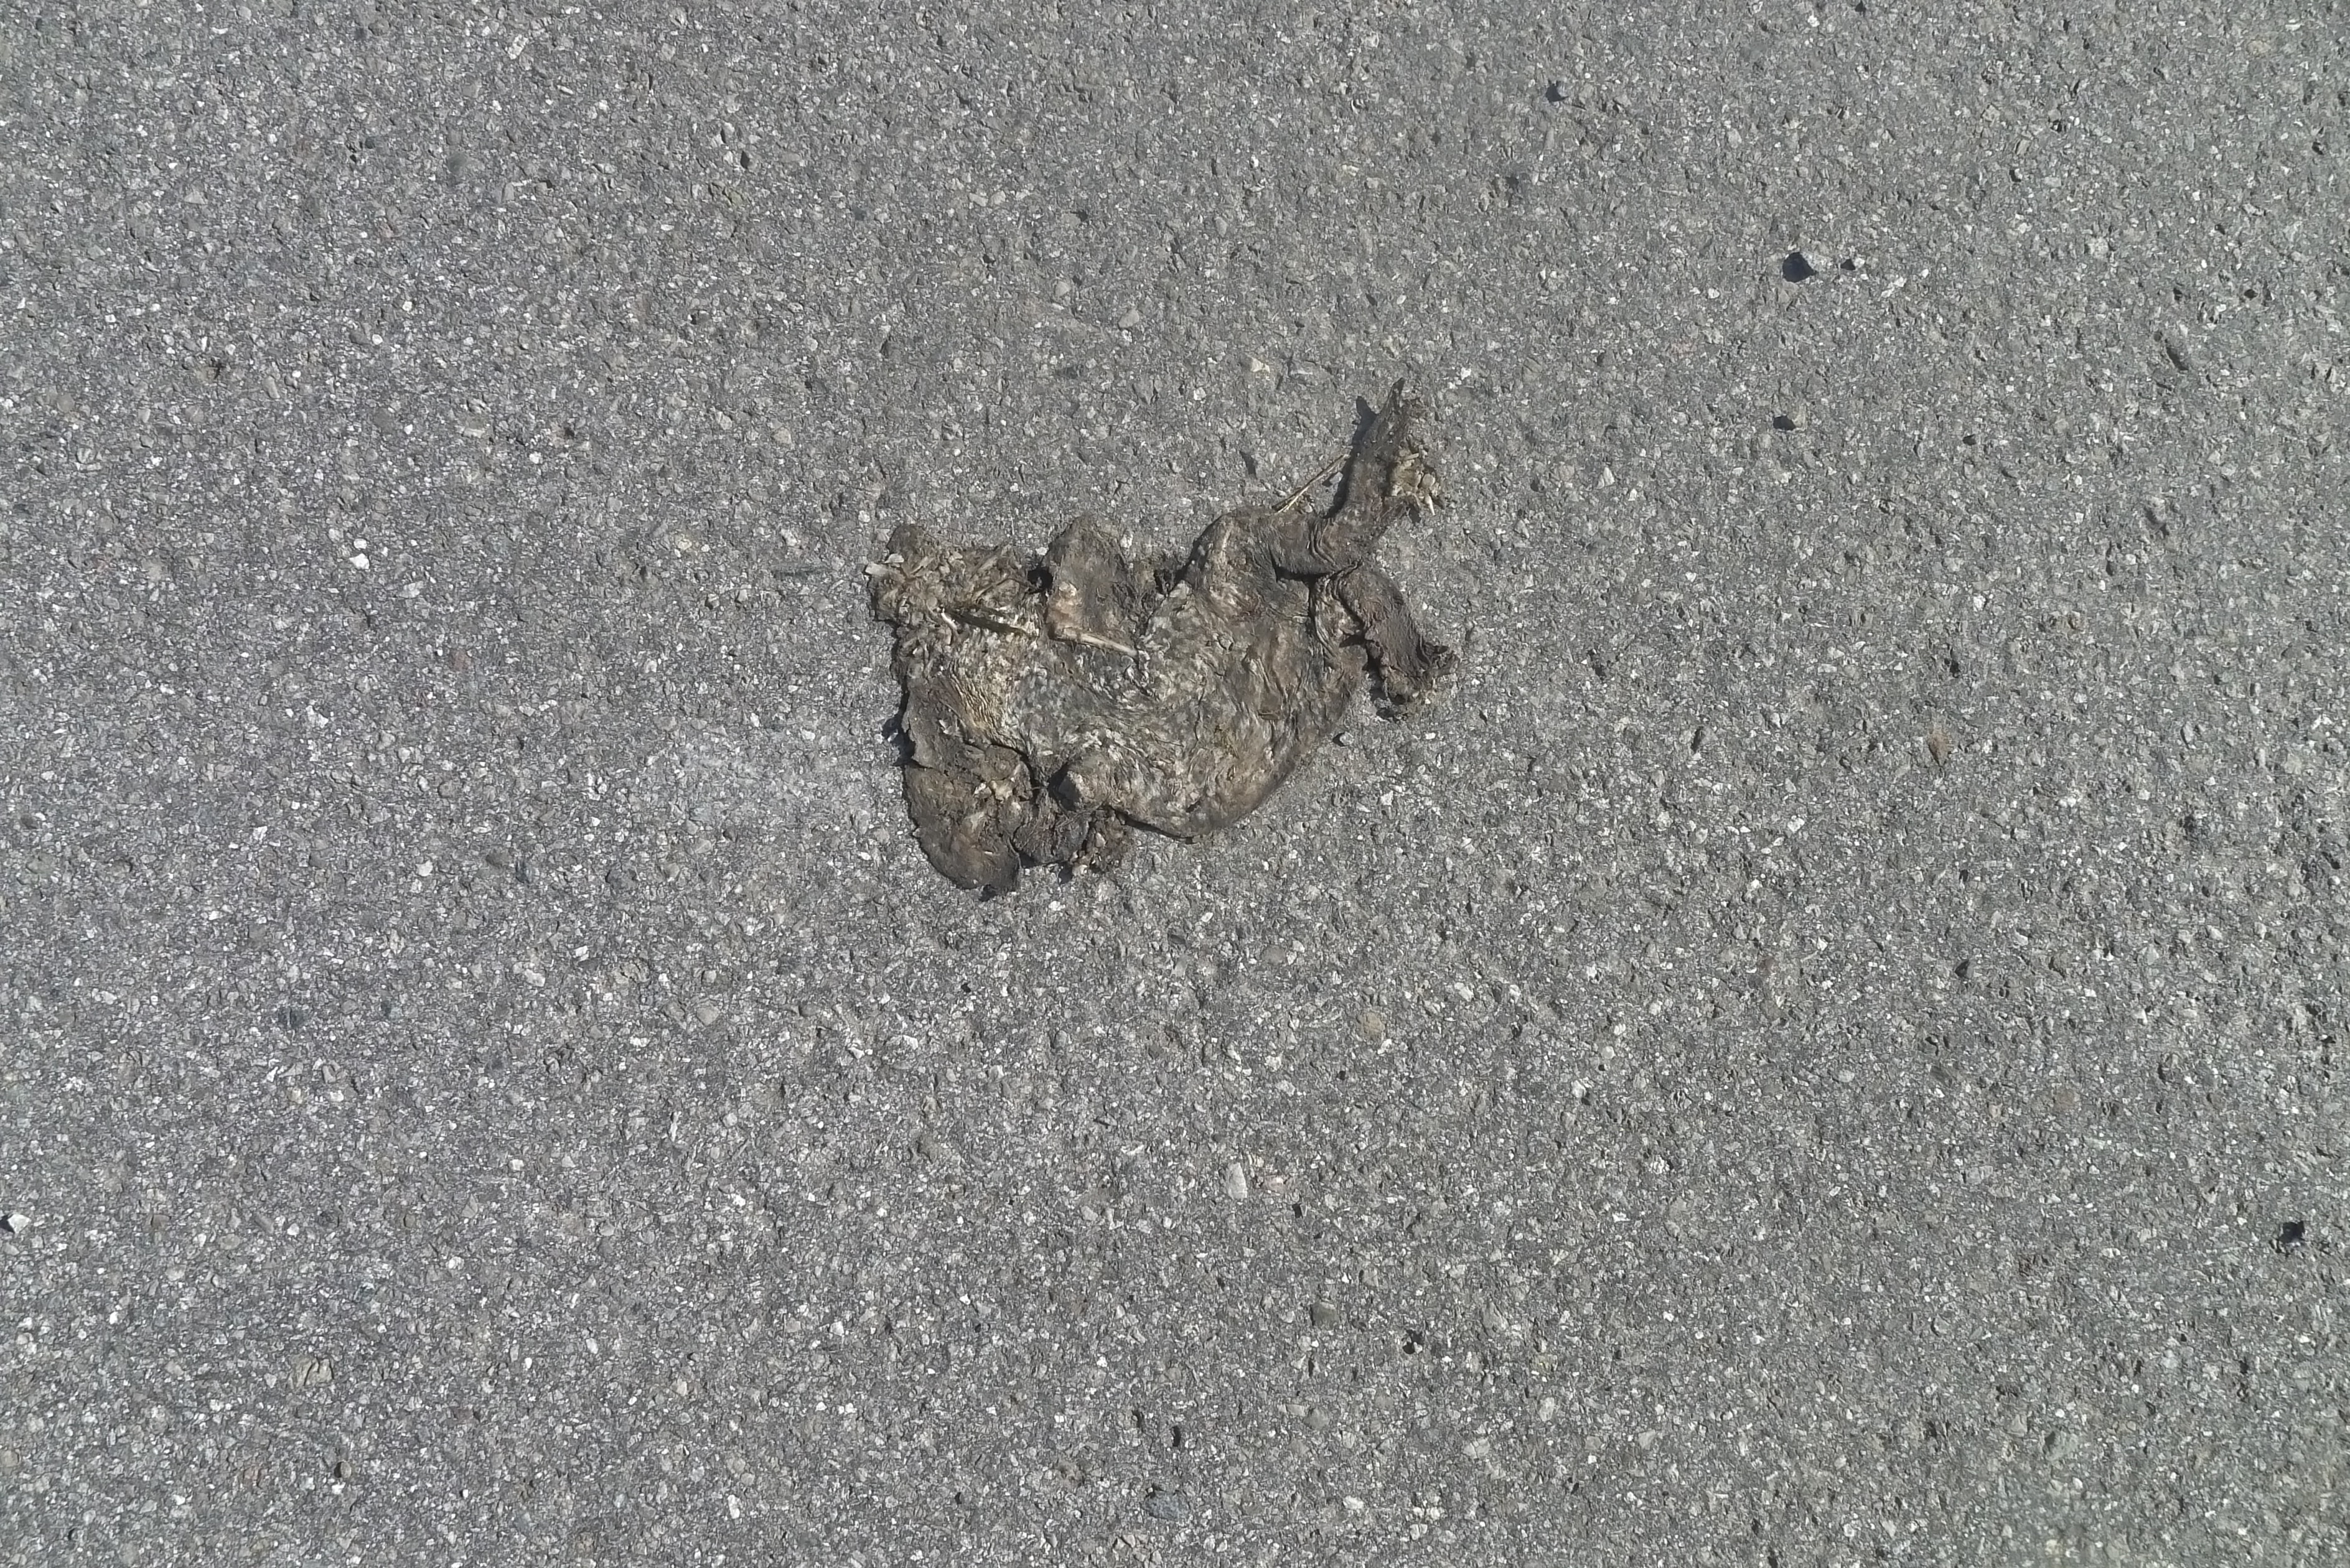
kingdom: Animalia
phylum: Chordata
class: Amphibia
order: Anura
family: Bufonidae
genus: Bufo
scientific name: Bufo bufo
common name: Common toad
